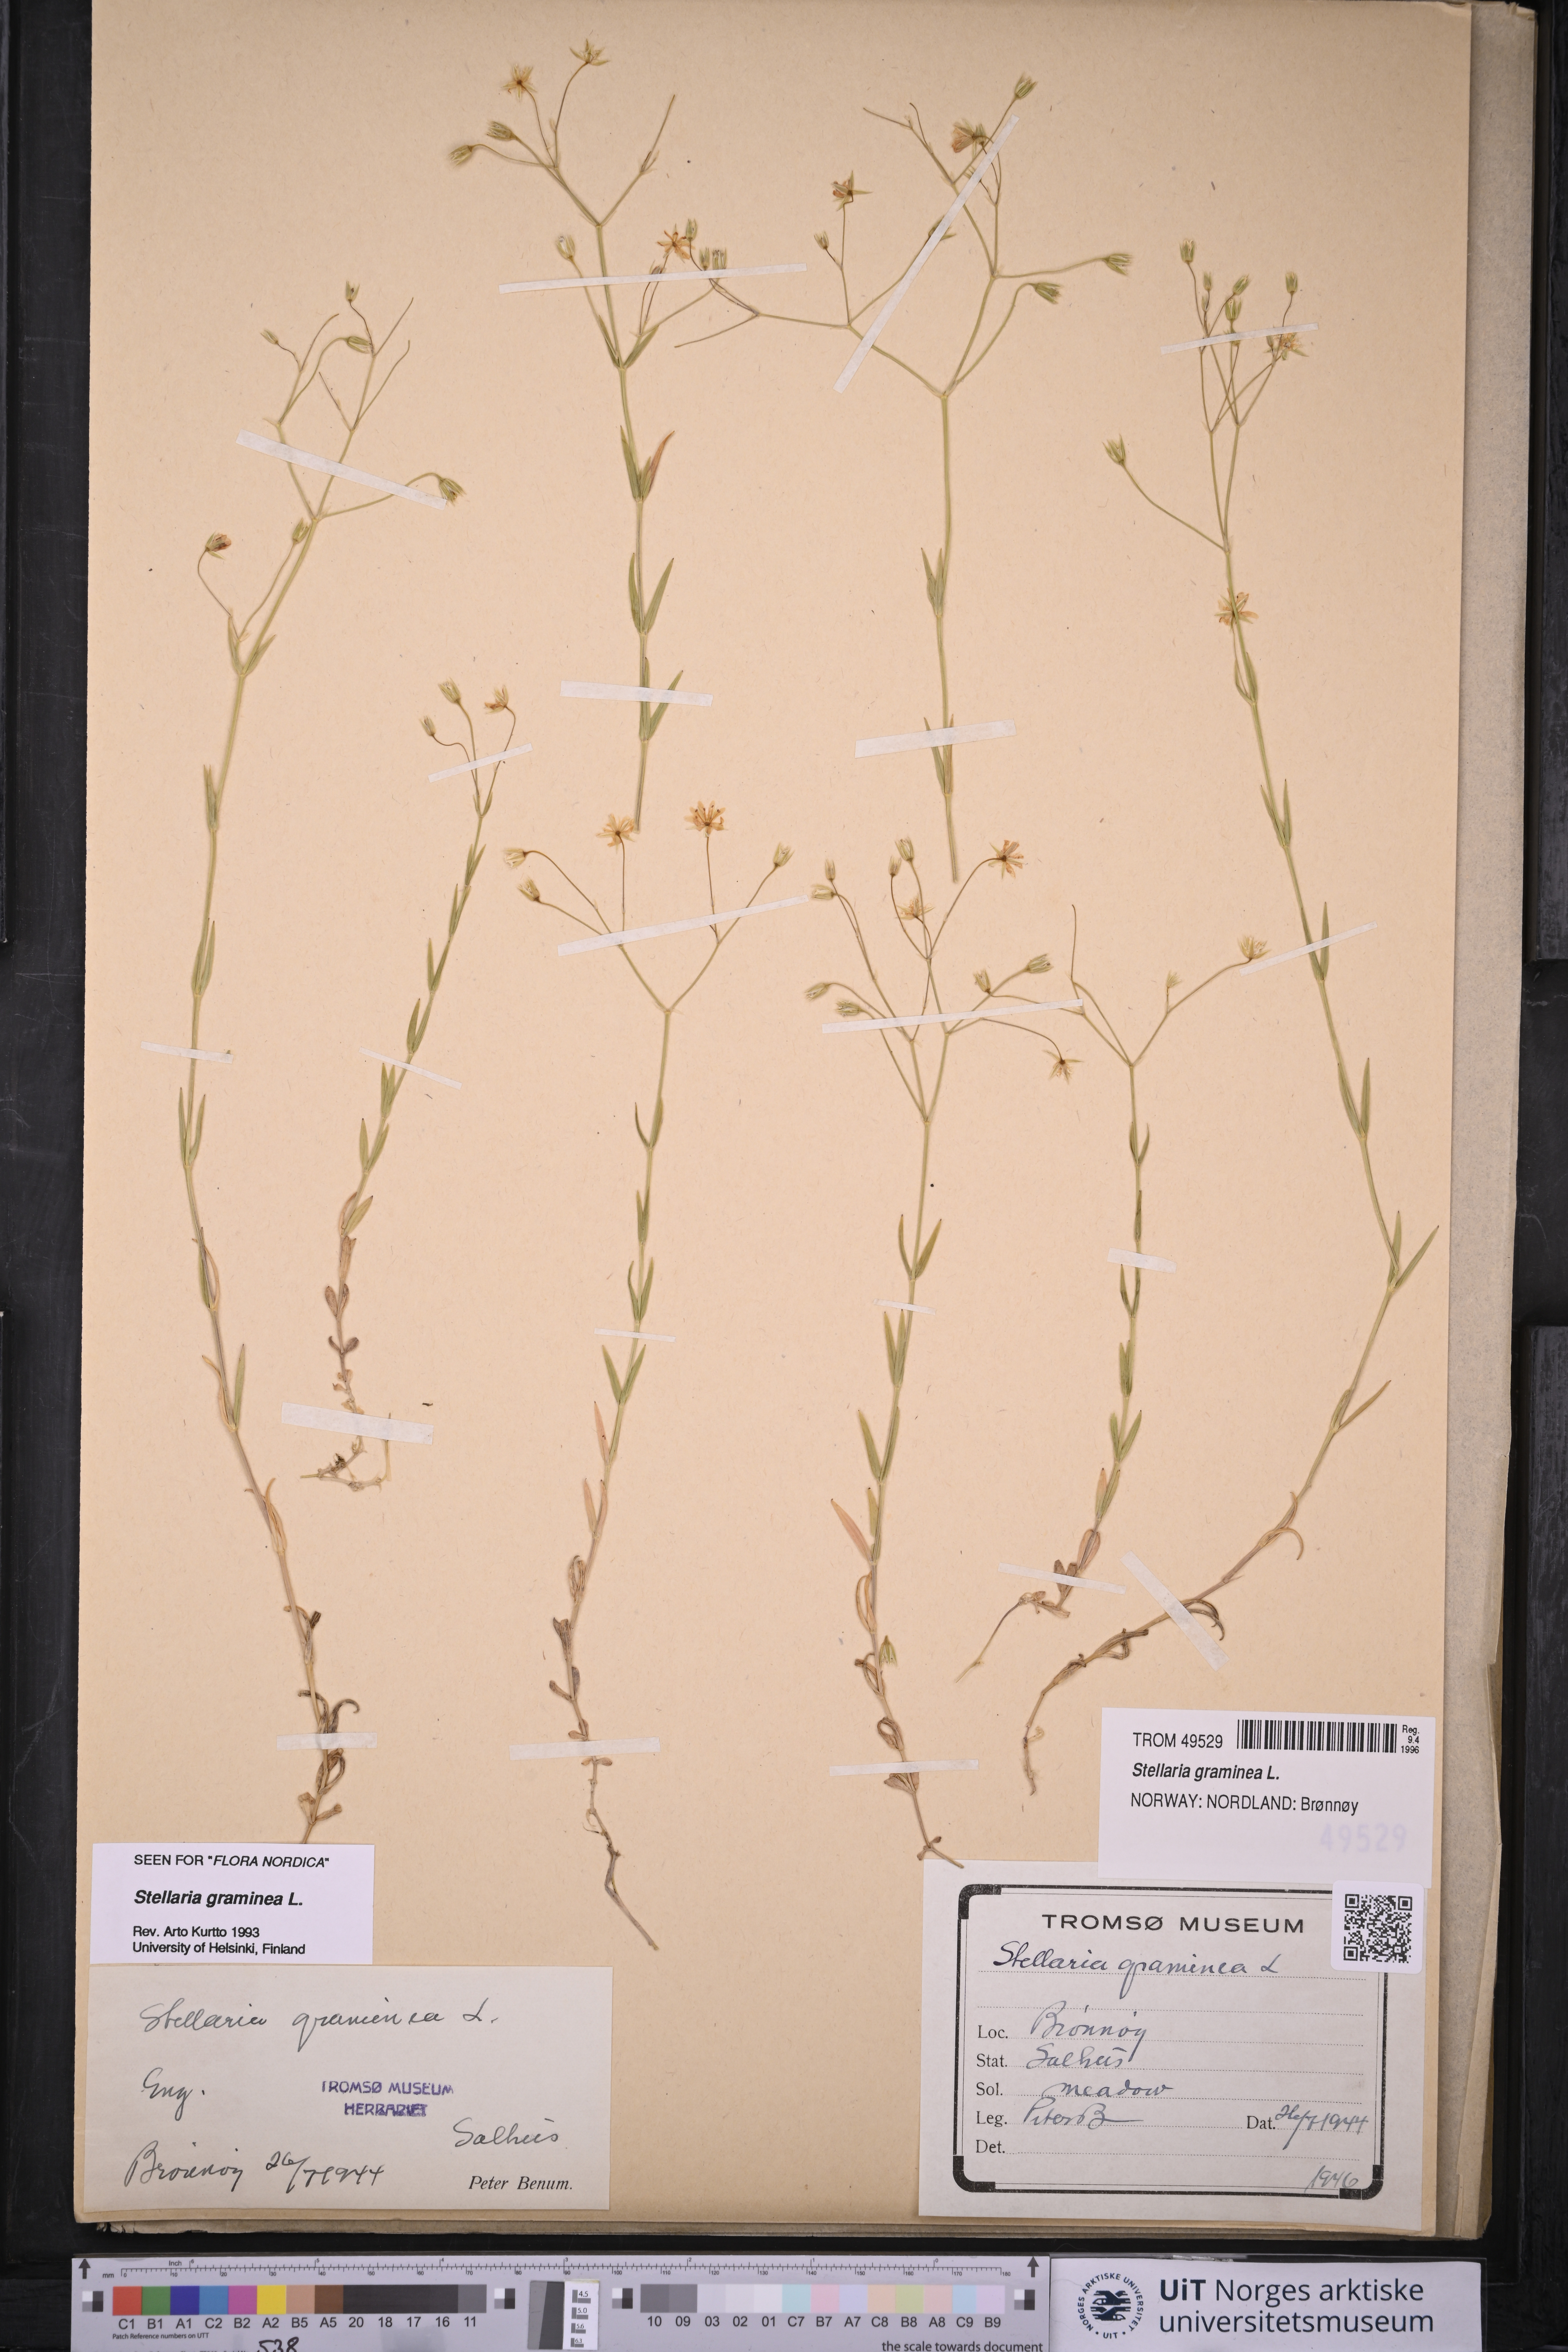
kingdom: Plantae
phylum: Tracheophyta
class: Magnoliopsida
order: Caryophyllales
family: Caryophyllaceae
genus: Stellaria
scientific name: Stellaria graminea
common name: Grass-like starwort
